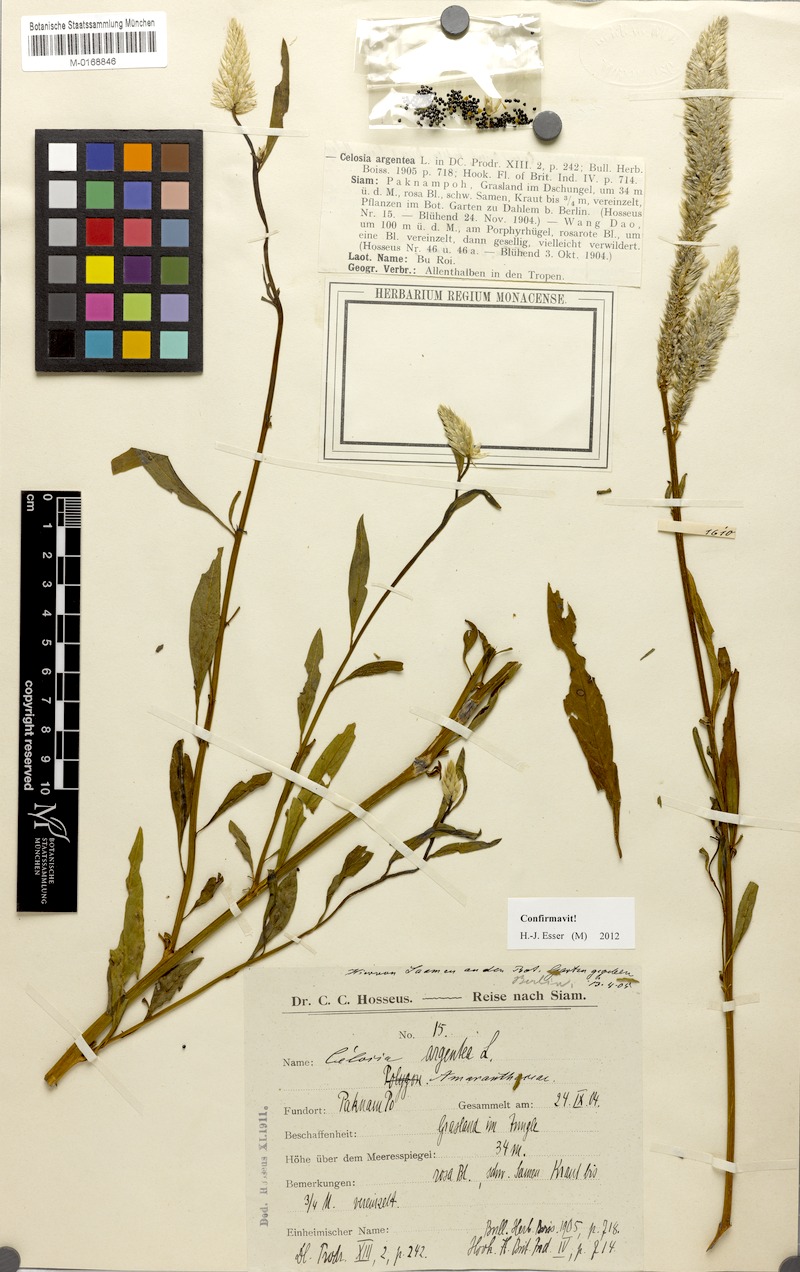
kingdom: Plantae
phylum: Tracheophyta
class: Magnoliopsida
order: Caryophyllales
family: Amaranthaceae
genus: Celosia
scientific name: Celosia argentea
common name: Feather cockscomb
